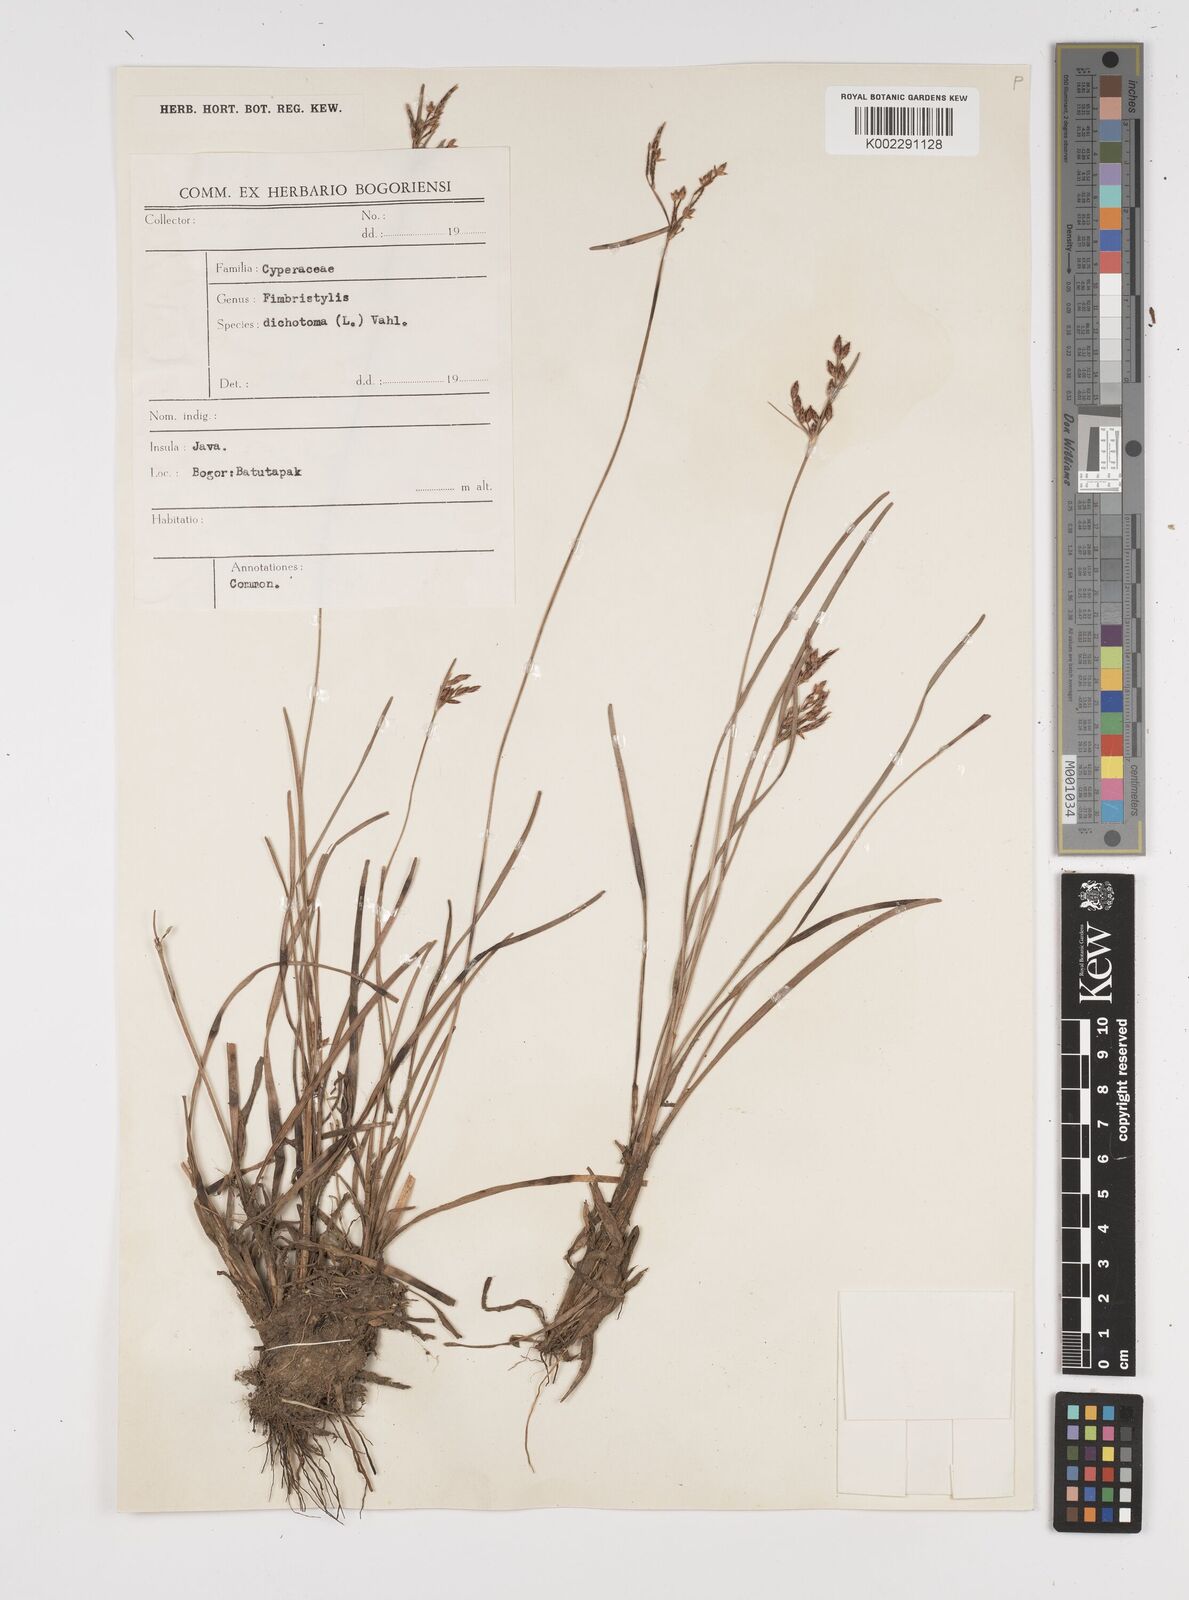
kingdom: Plantae
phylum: Tracheophyta
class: Liliopsida
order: Poales
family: Cyperaceae
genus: Fimbristylis
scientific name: Fimbristylis dichotoma
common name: Forked fimbry
